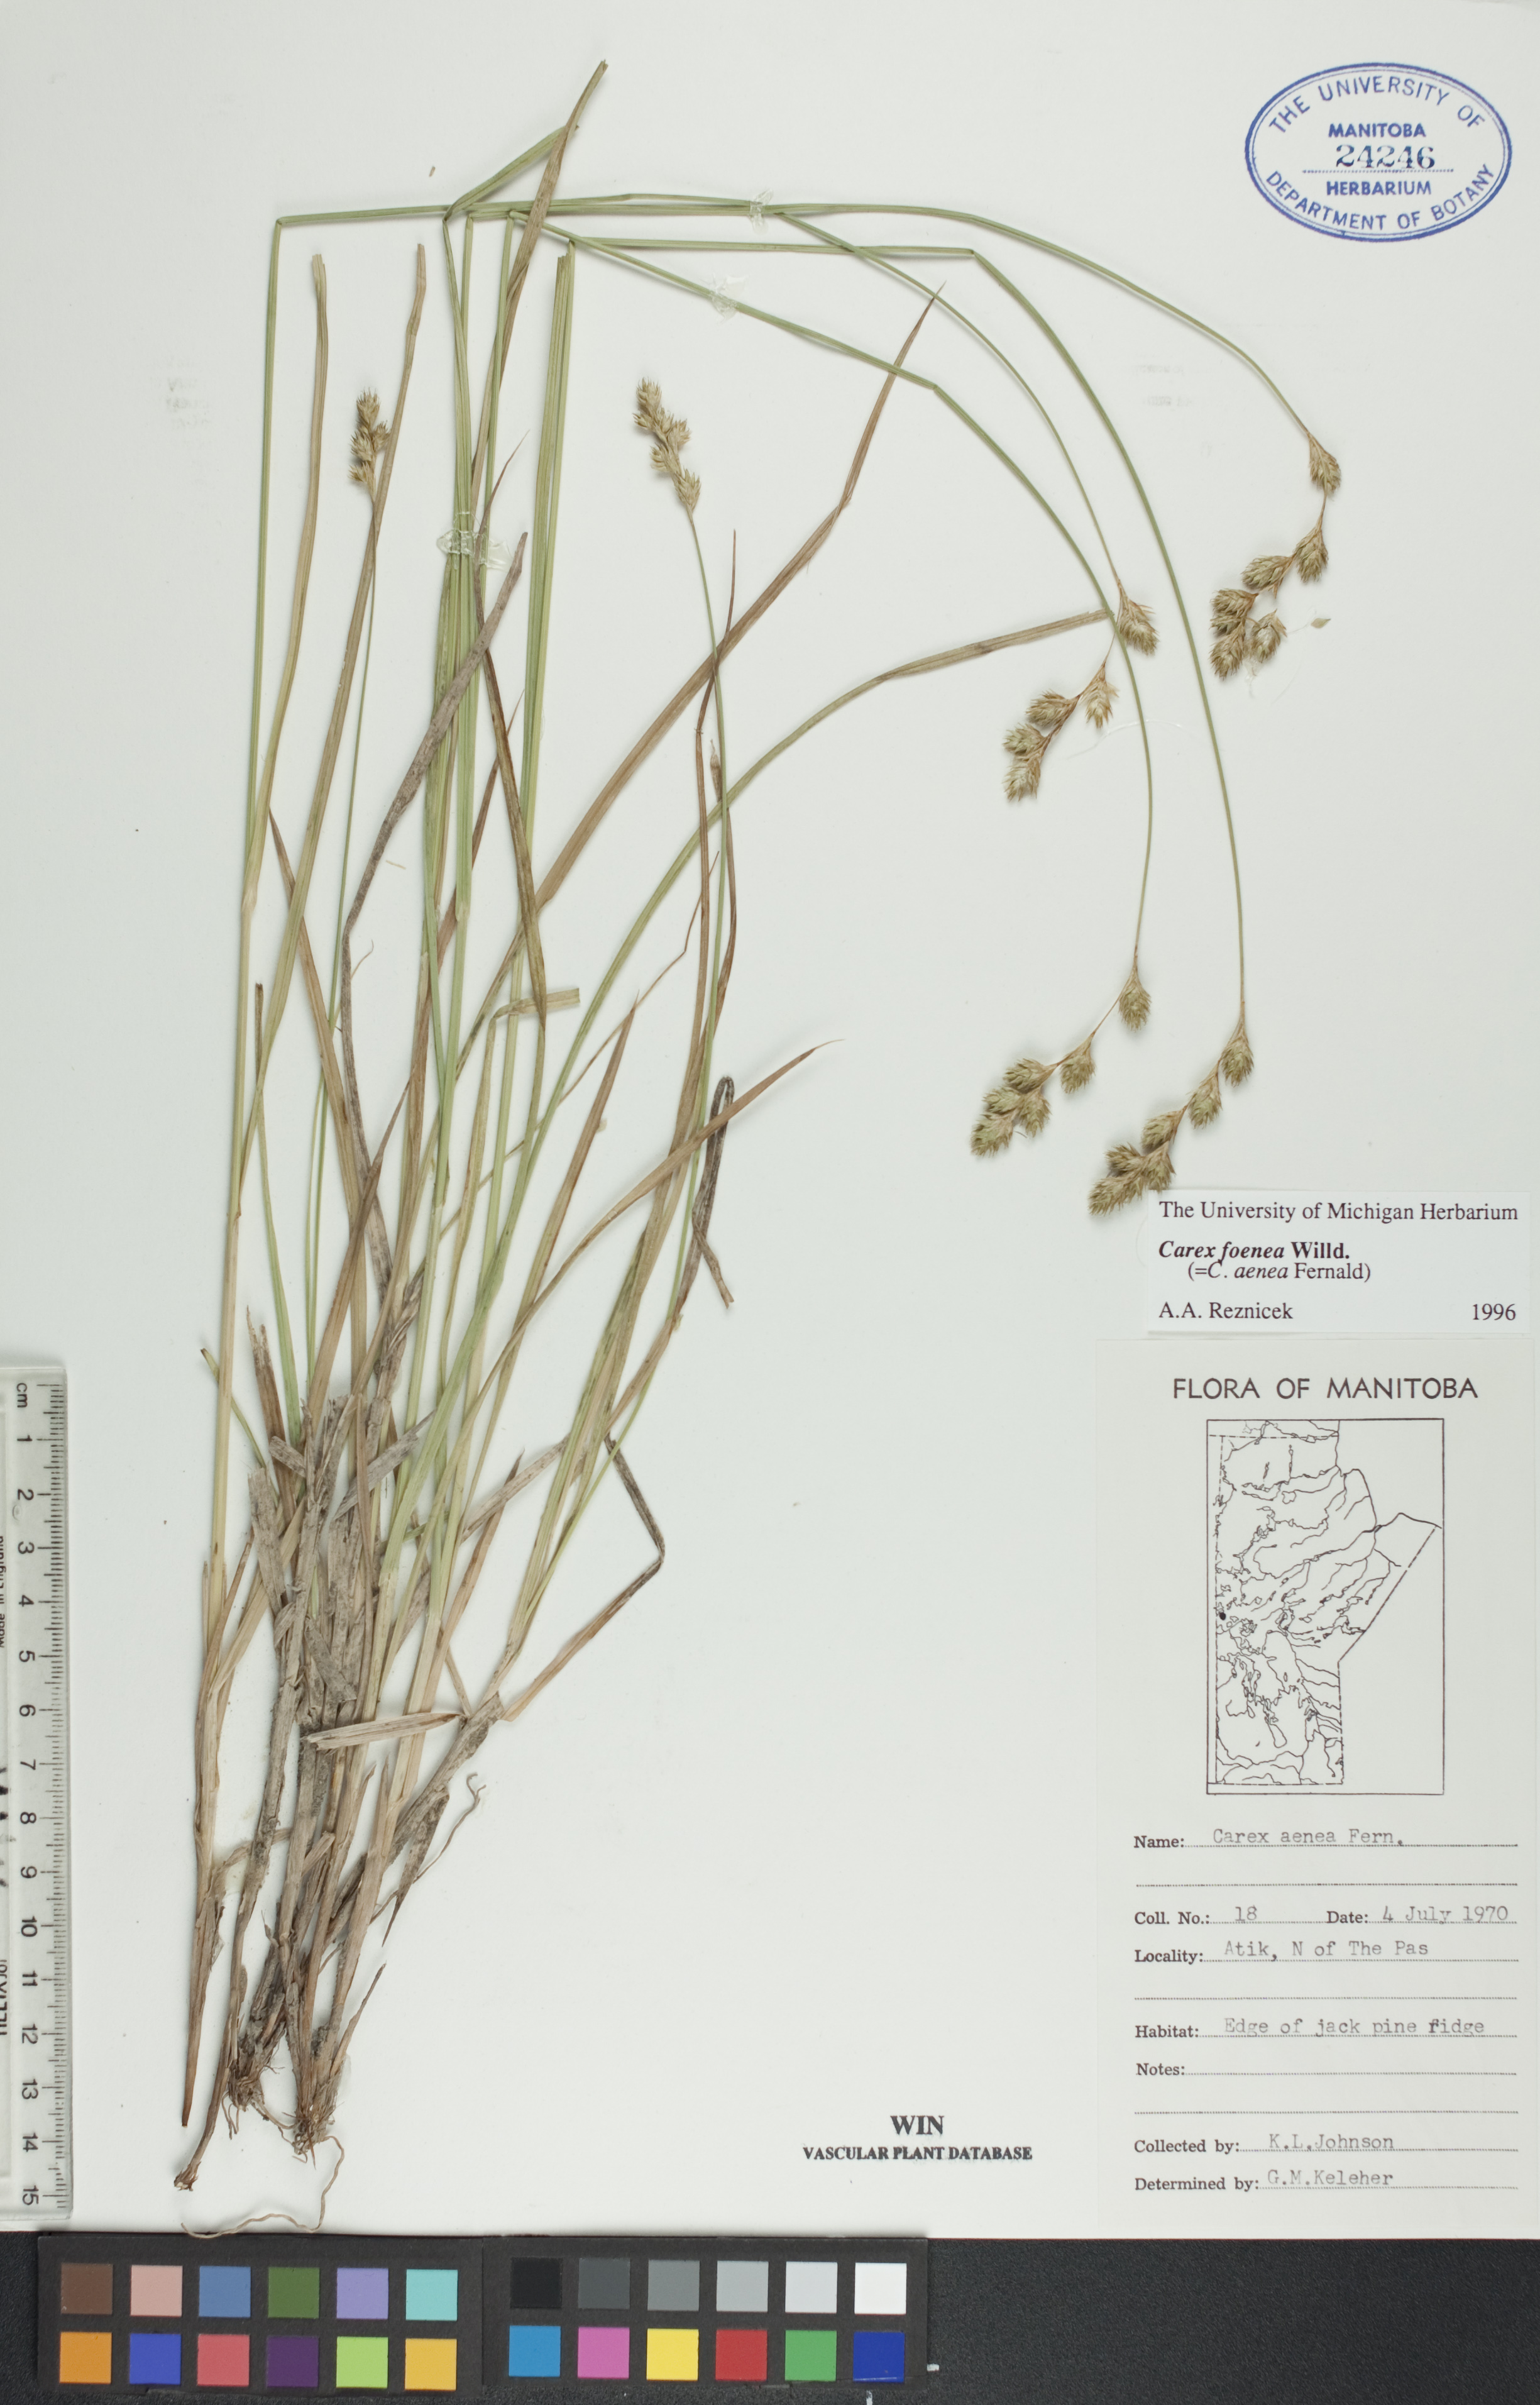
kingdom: Plantae
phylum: Tracheophyta
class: Liliopsida
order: Poales
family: Cyperaceae
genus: Carex
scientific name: Carex foenea
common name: Bronze sedge
